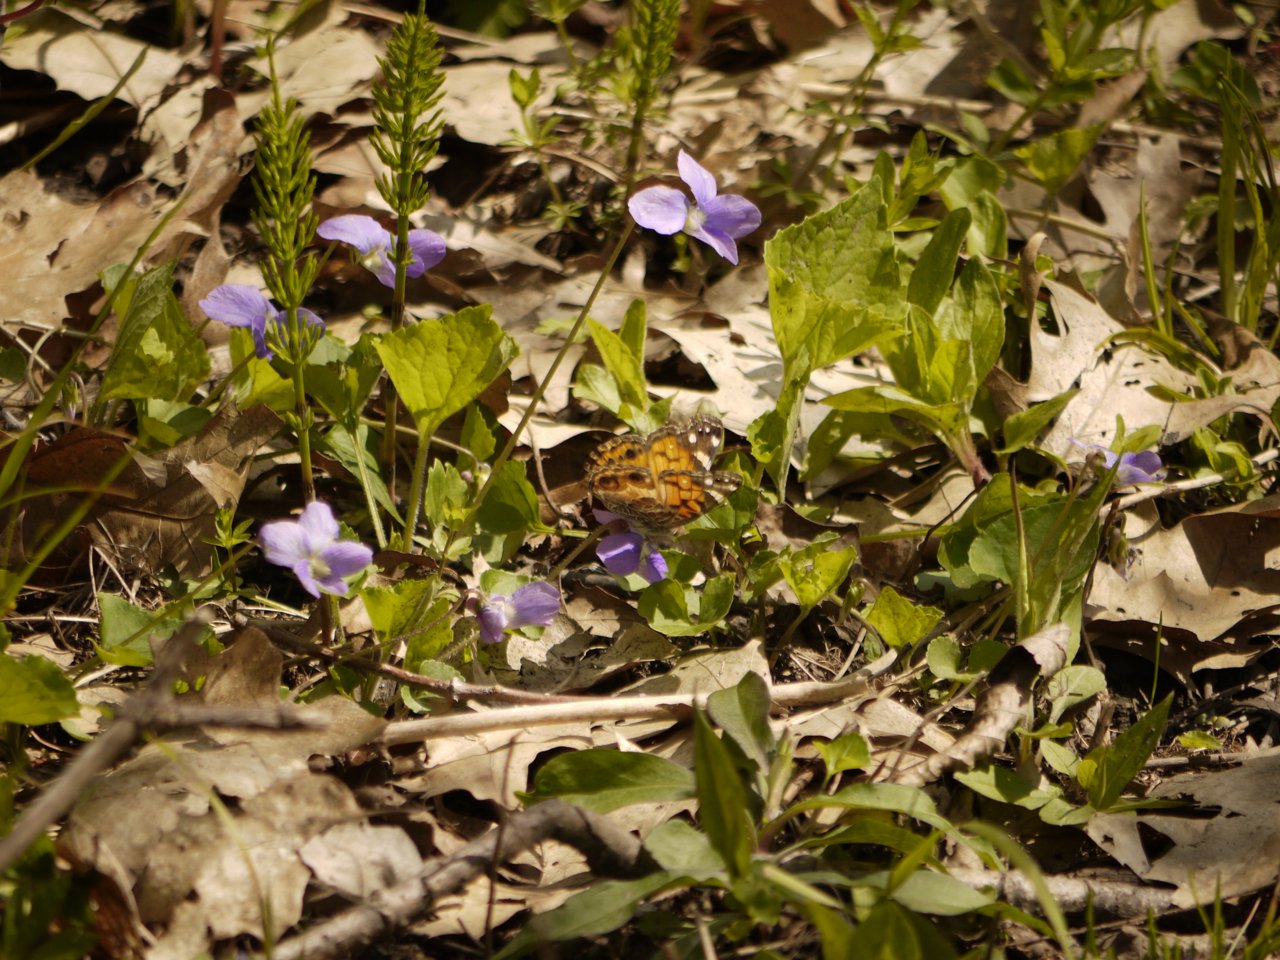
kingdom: Animalia
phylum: Arthropoda
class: Insecta
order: Lepidoptera
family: Nymphalidae
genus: Vanessa
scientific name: Vanessa virginiensis
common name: American Lady
